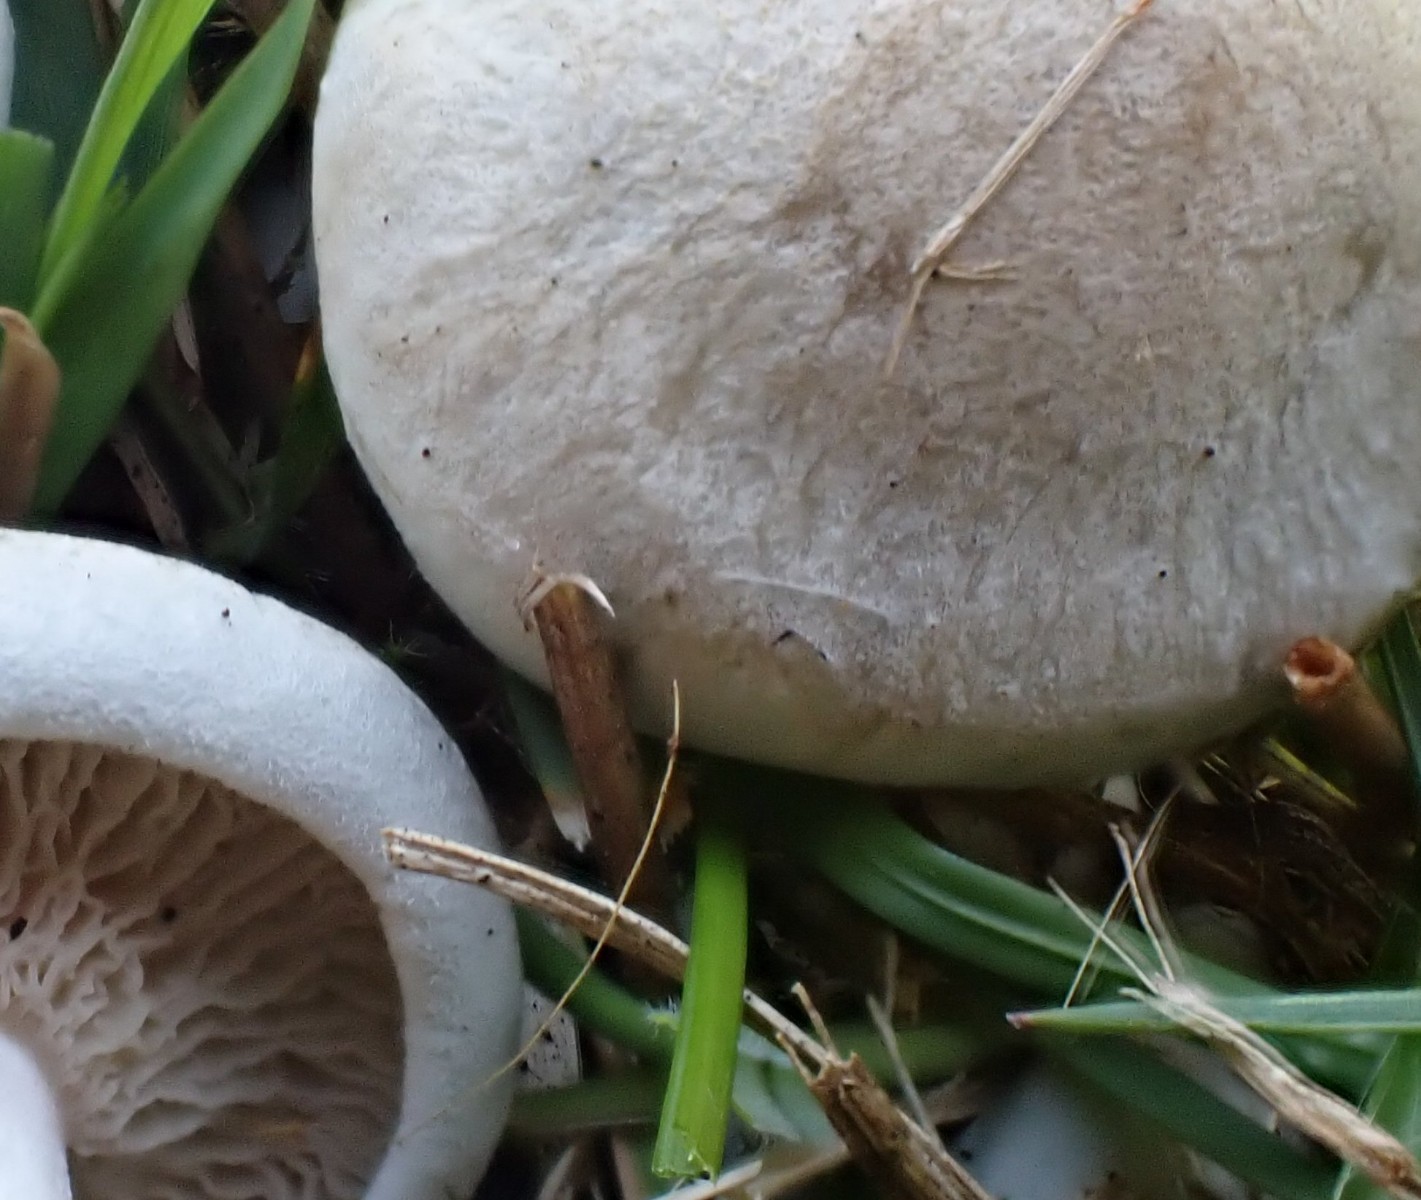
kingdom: Fungi
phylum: Basidiomycota
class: Agaricomycetes
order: Agaricales
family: Tricholomataceae
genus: Clitocybe
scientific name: Clitocybe odora
